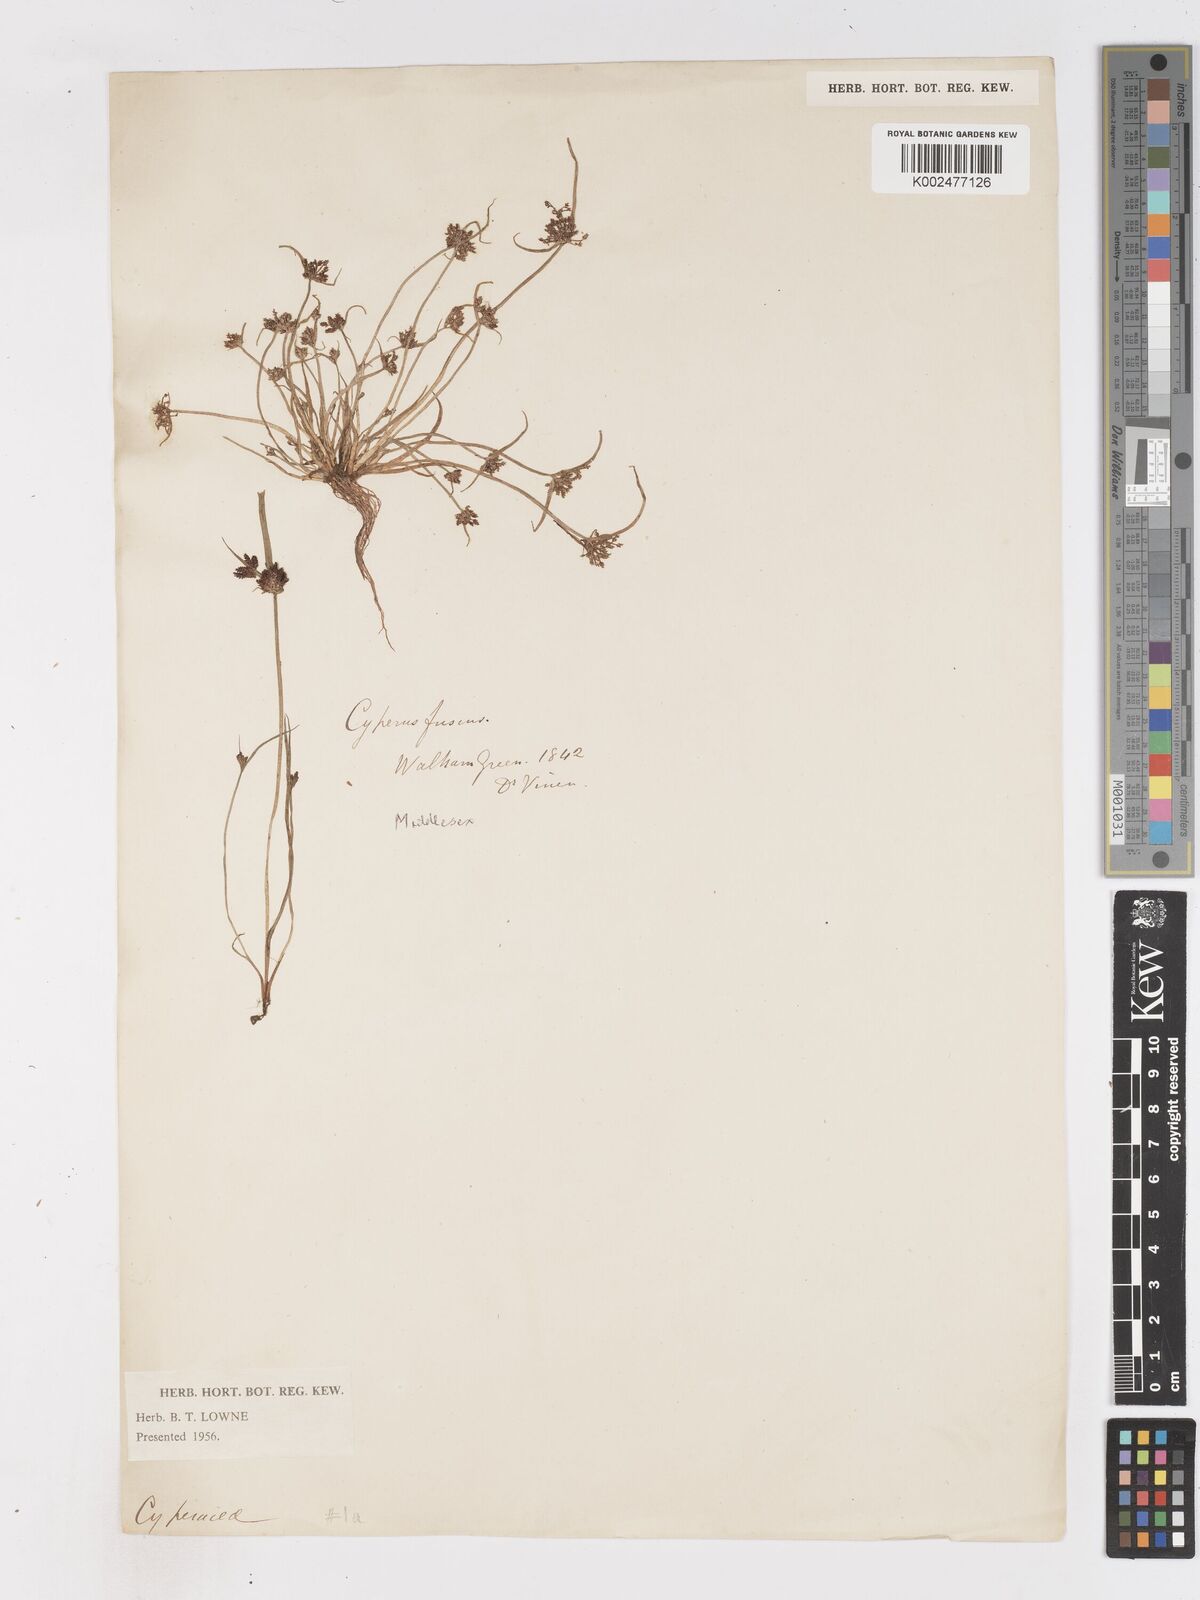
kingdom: Plantae
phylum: Tracheophyta
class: Liliopsida
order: Poales
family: Cyperaceae
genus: Cyperus
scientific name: Cyperus fuscus
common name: Brown galingale
